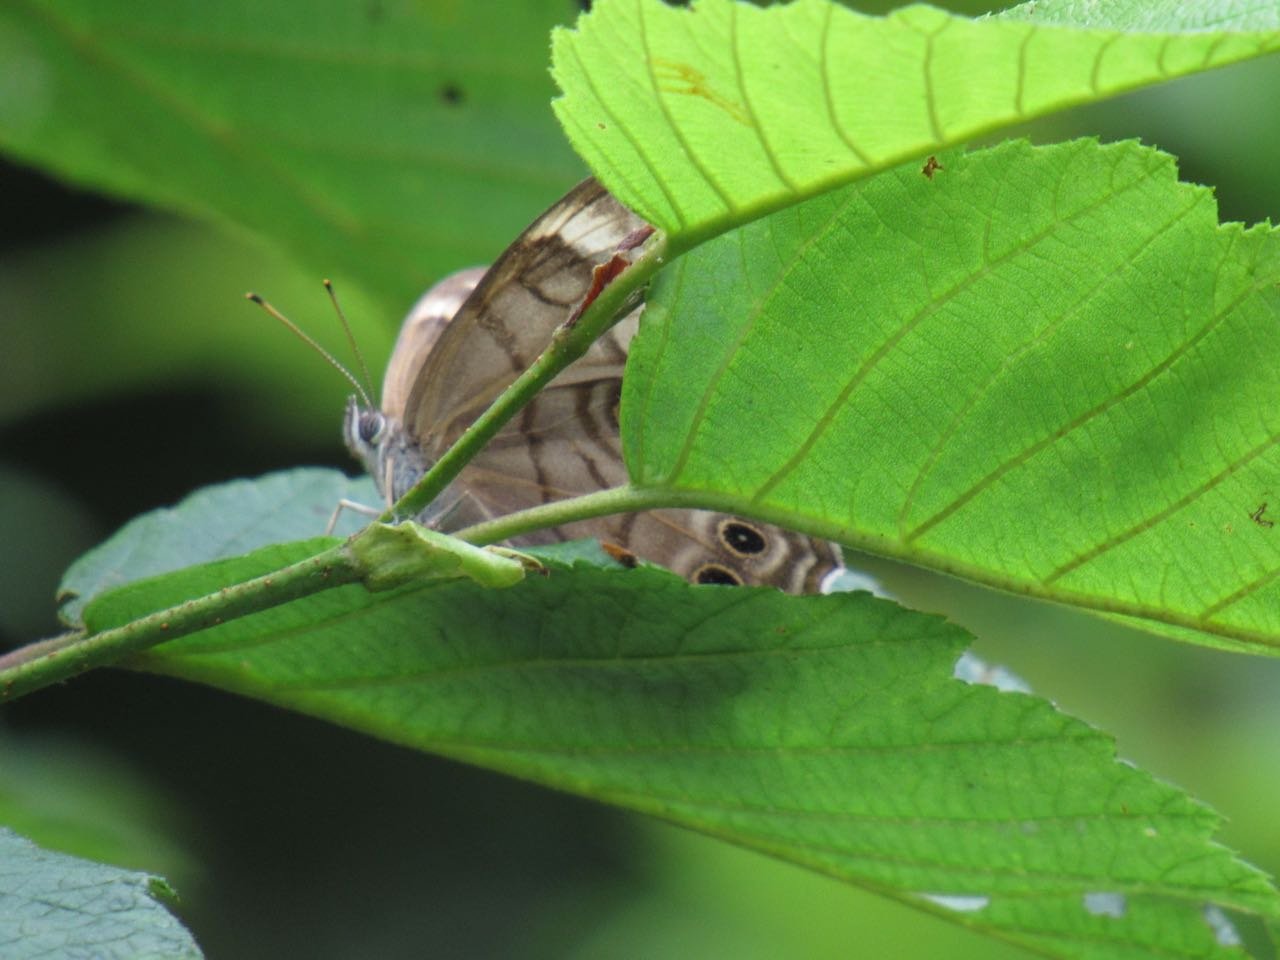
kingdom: Animalia
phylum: Arthropoda
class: Insecta
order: Lepidoptera
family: Nymphalidae
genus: Lethe
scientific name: Lethe anthedon
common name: Northern Pearly-Eye
